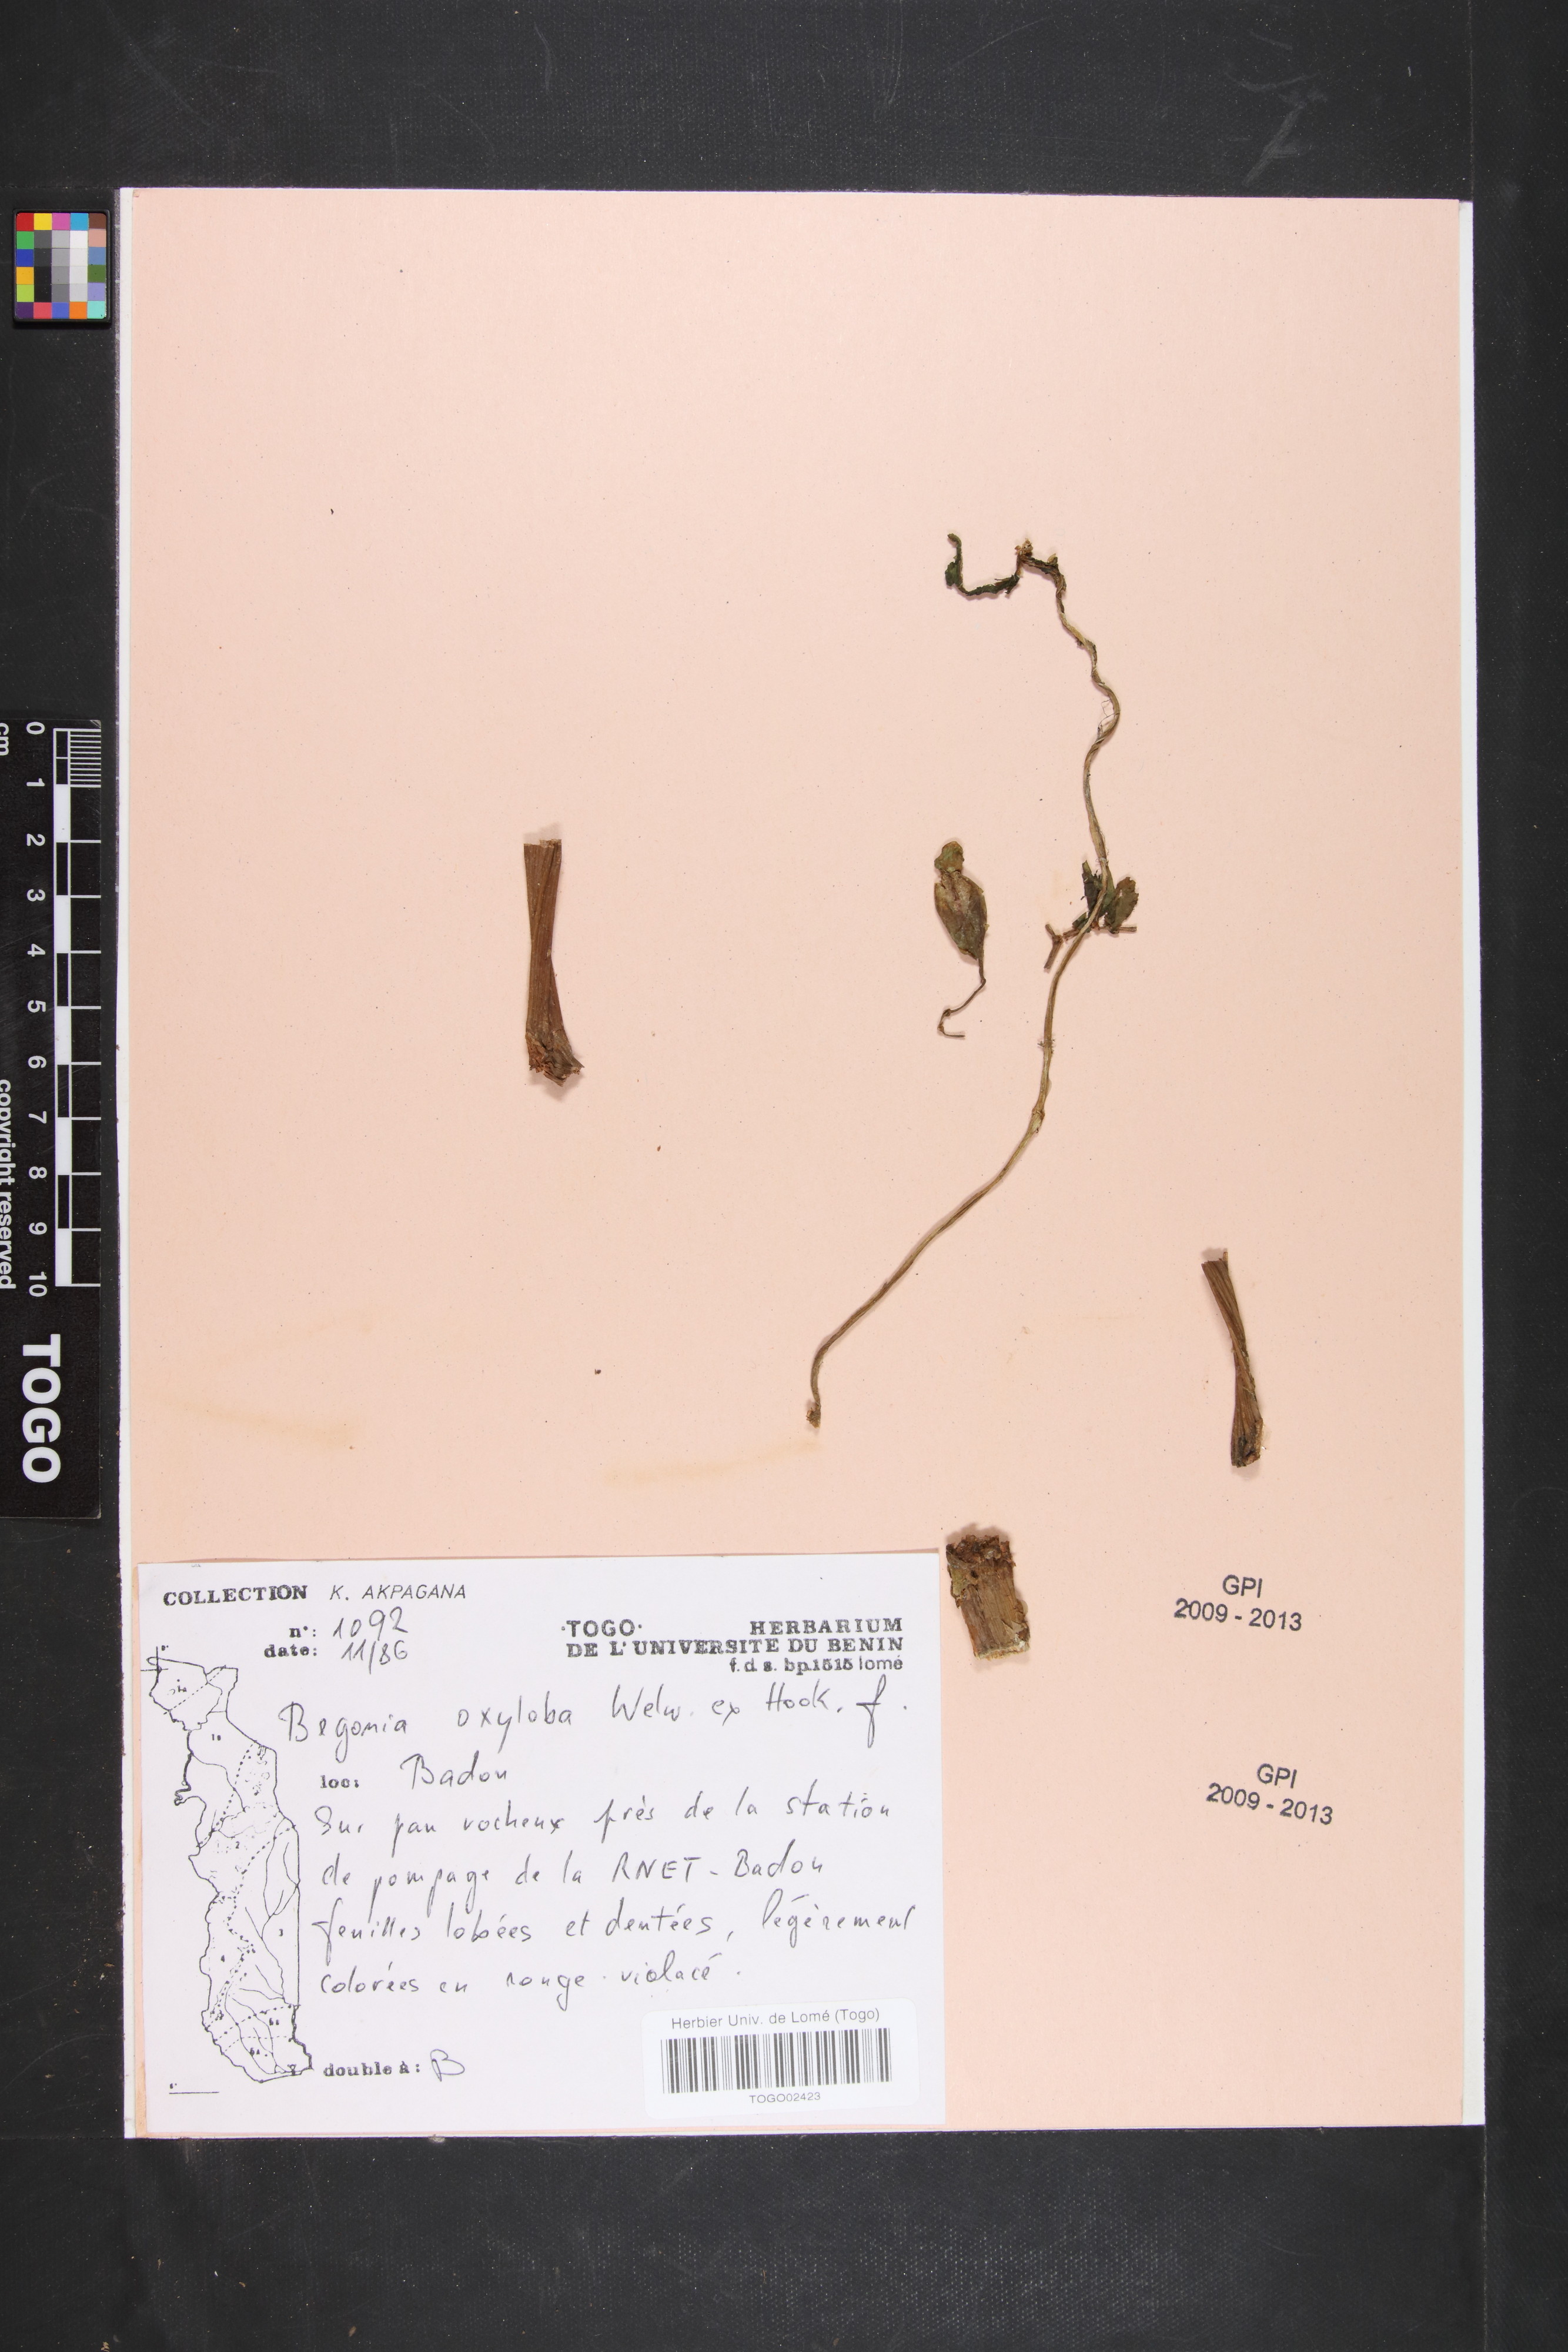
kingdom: Plantae
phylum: Tracheophyta
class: Magnoliopsida
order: Cucurbitales
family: Begoniaceae
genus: Begonia
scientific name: Begonia oxyloba
